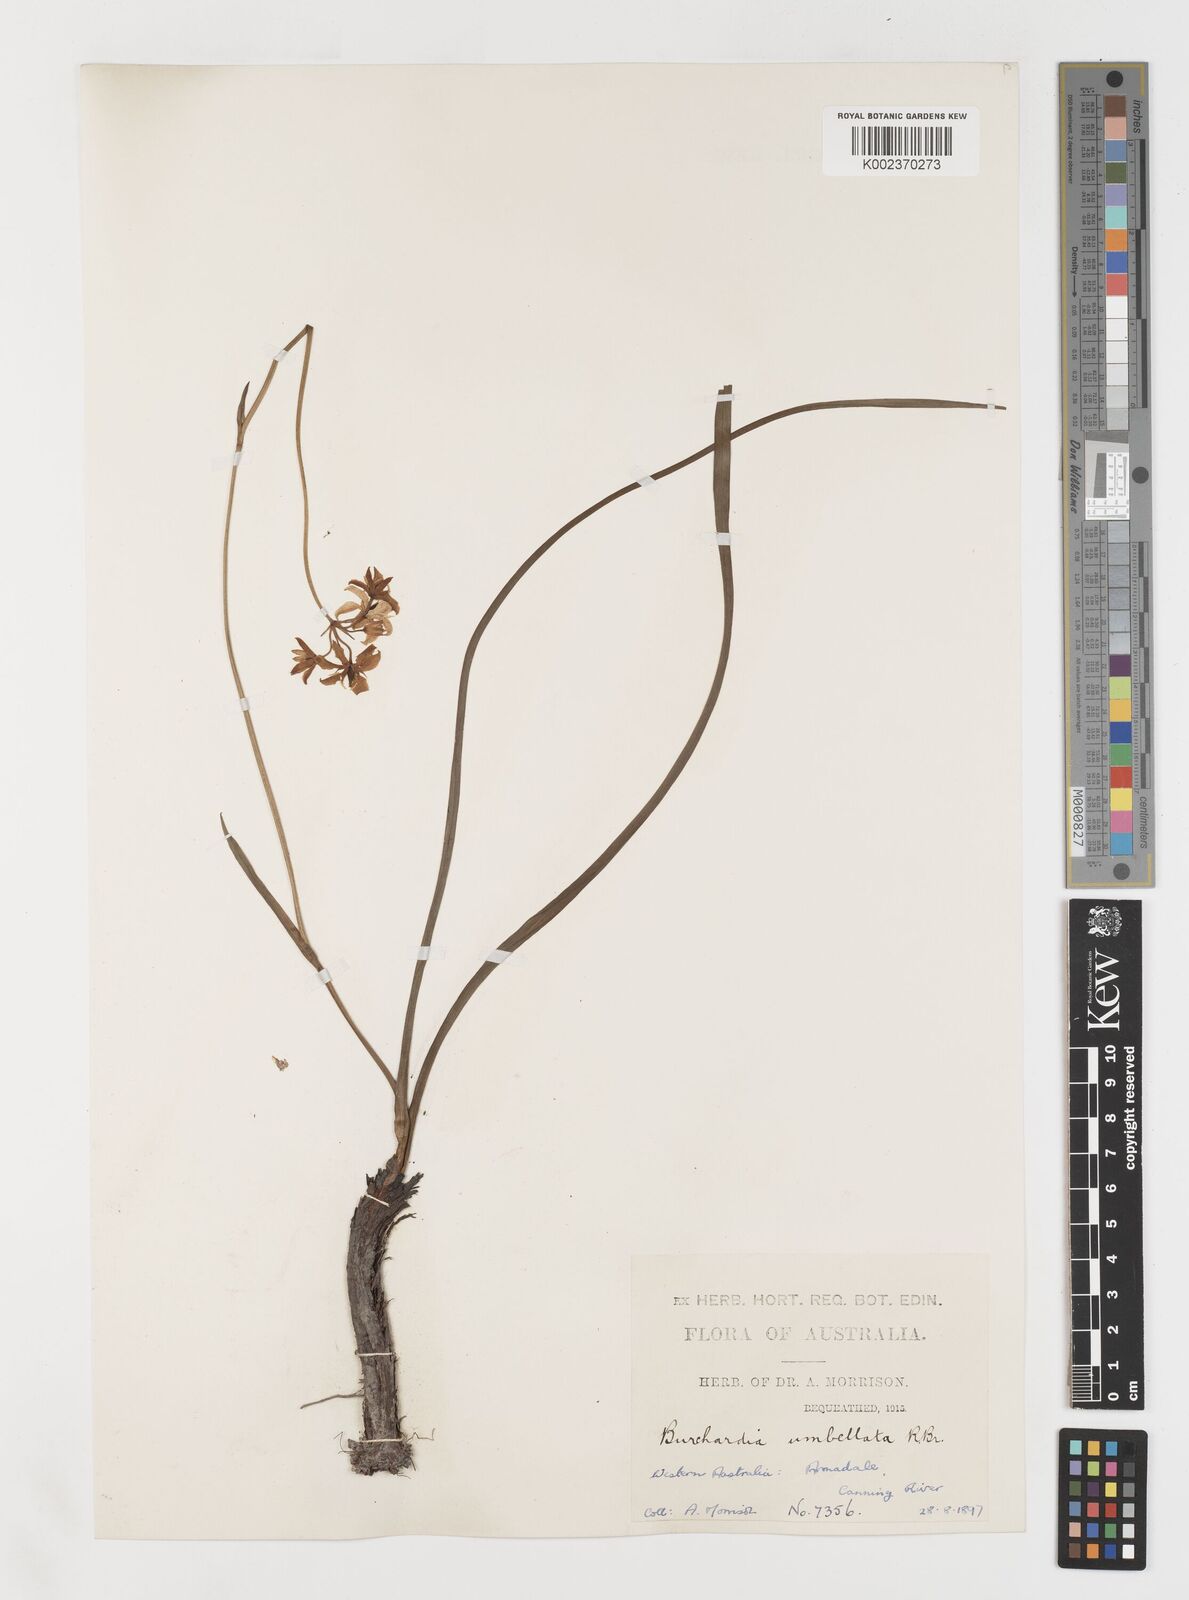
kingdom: Plantae
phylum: Tracheophyta
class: Liliopsida
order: Liliales
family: Colchicaceae
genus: Burchardia
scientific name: Burchardia umbellata
